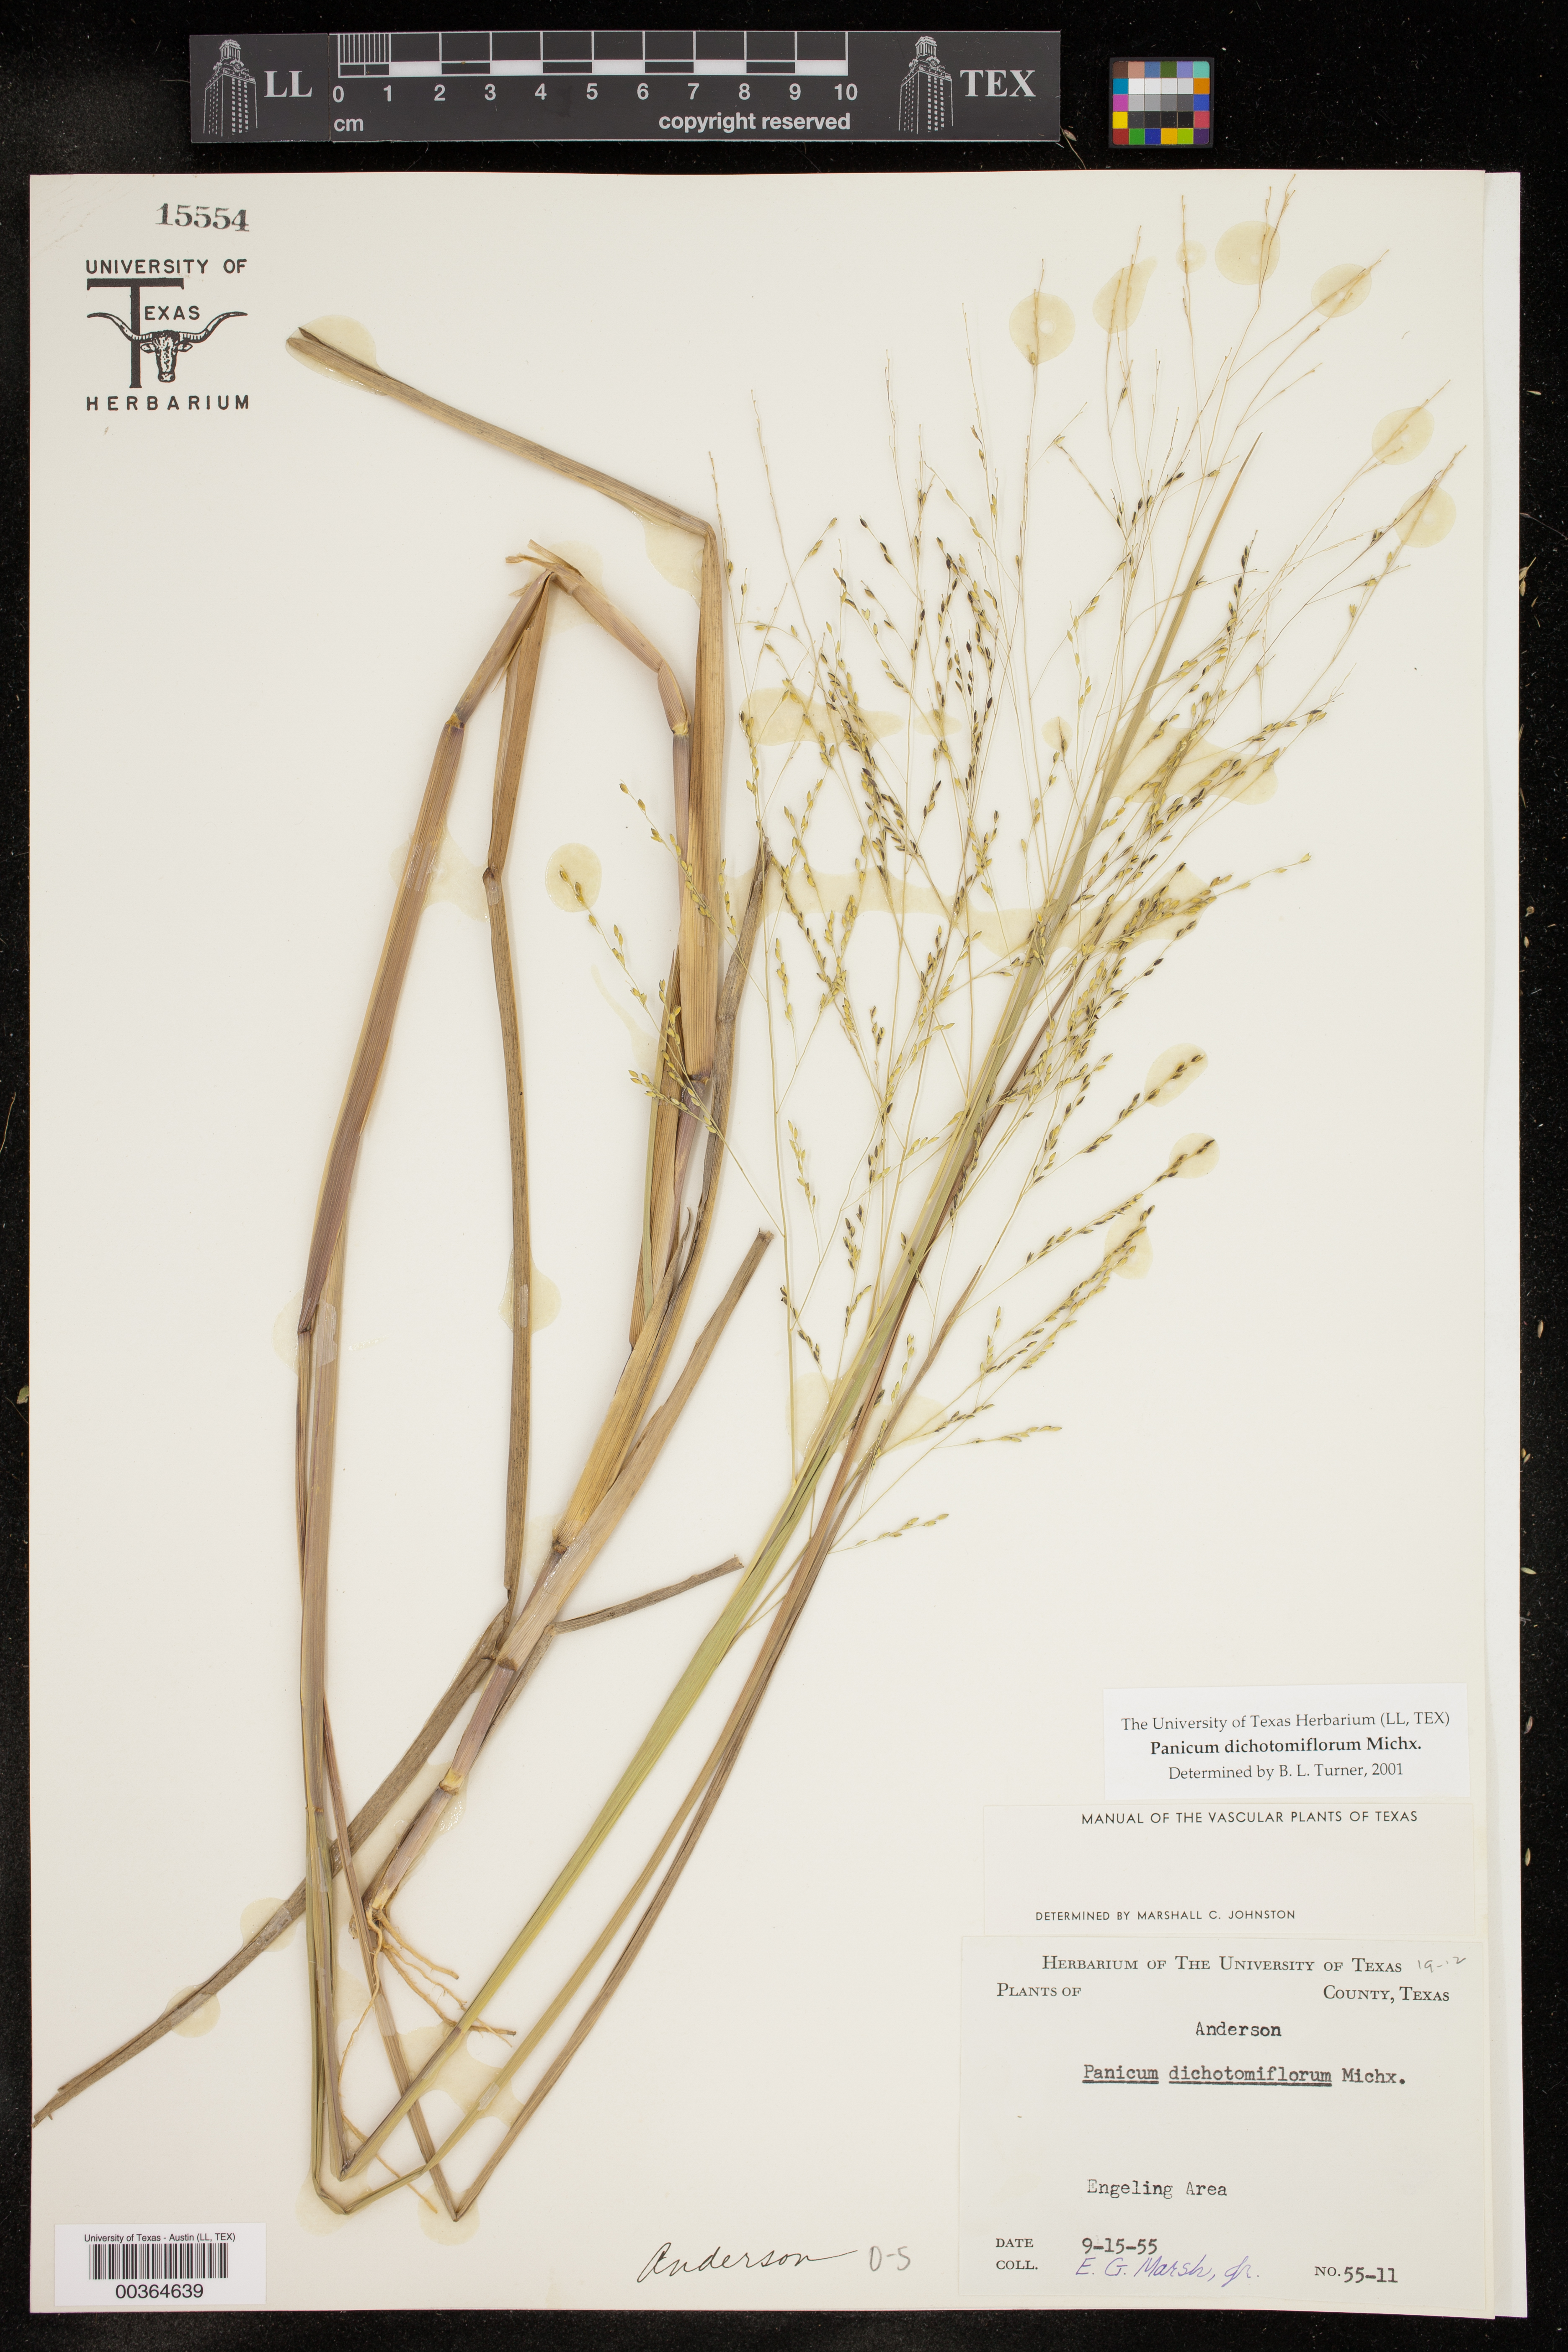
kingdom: Plantae
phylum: Tracheophyta
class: Liliopsida
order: Poales
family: Poaceae
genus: Panicum
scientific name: Panicum dichotomiflorum
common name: Autumn millet
